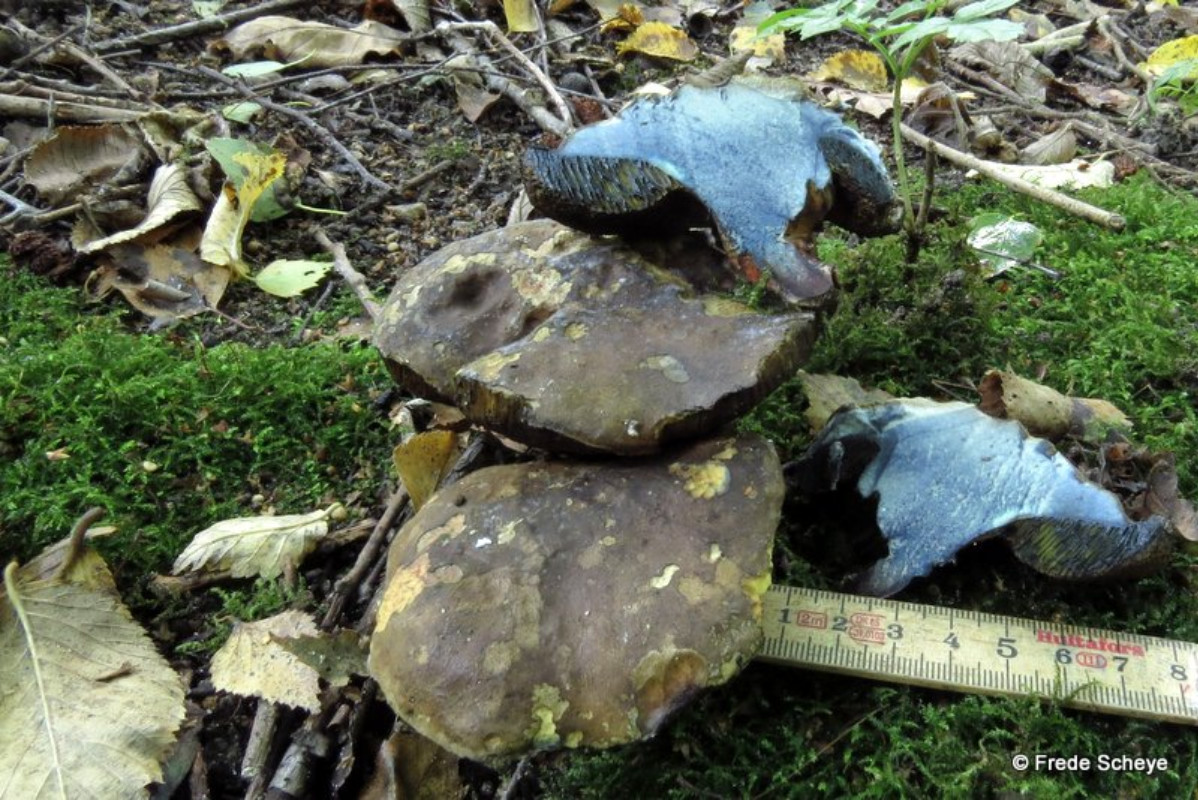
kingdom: Fungi
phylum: Basidiomycota
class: Agaricomycetes
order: Boletales
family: Boletaceae
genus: Cyanoboletus
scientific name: Cyanoboletus pulverulentus
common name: sortblånende rørhat
